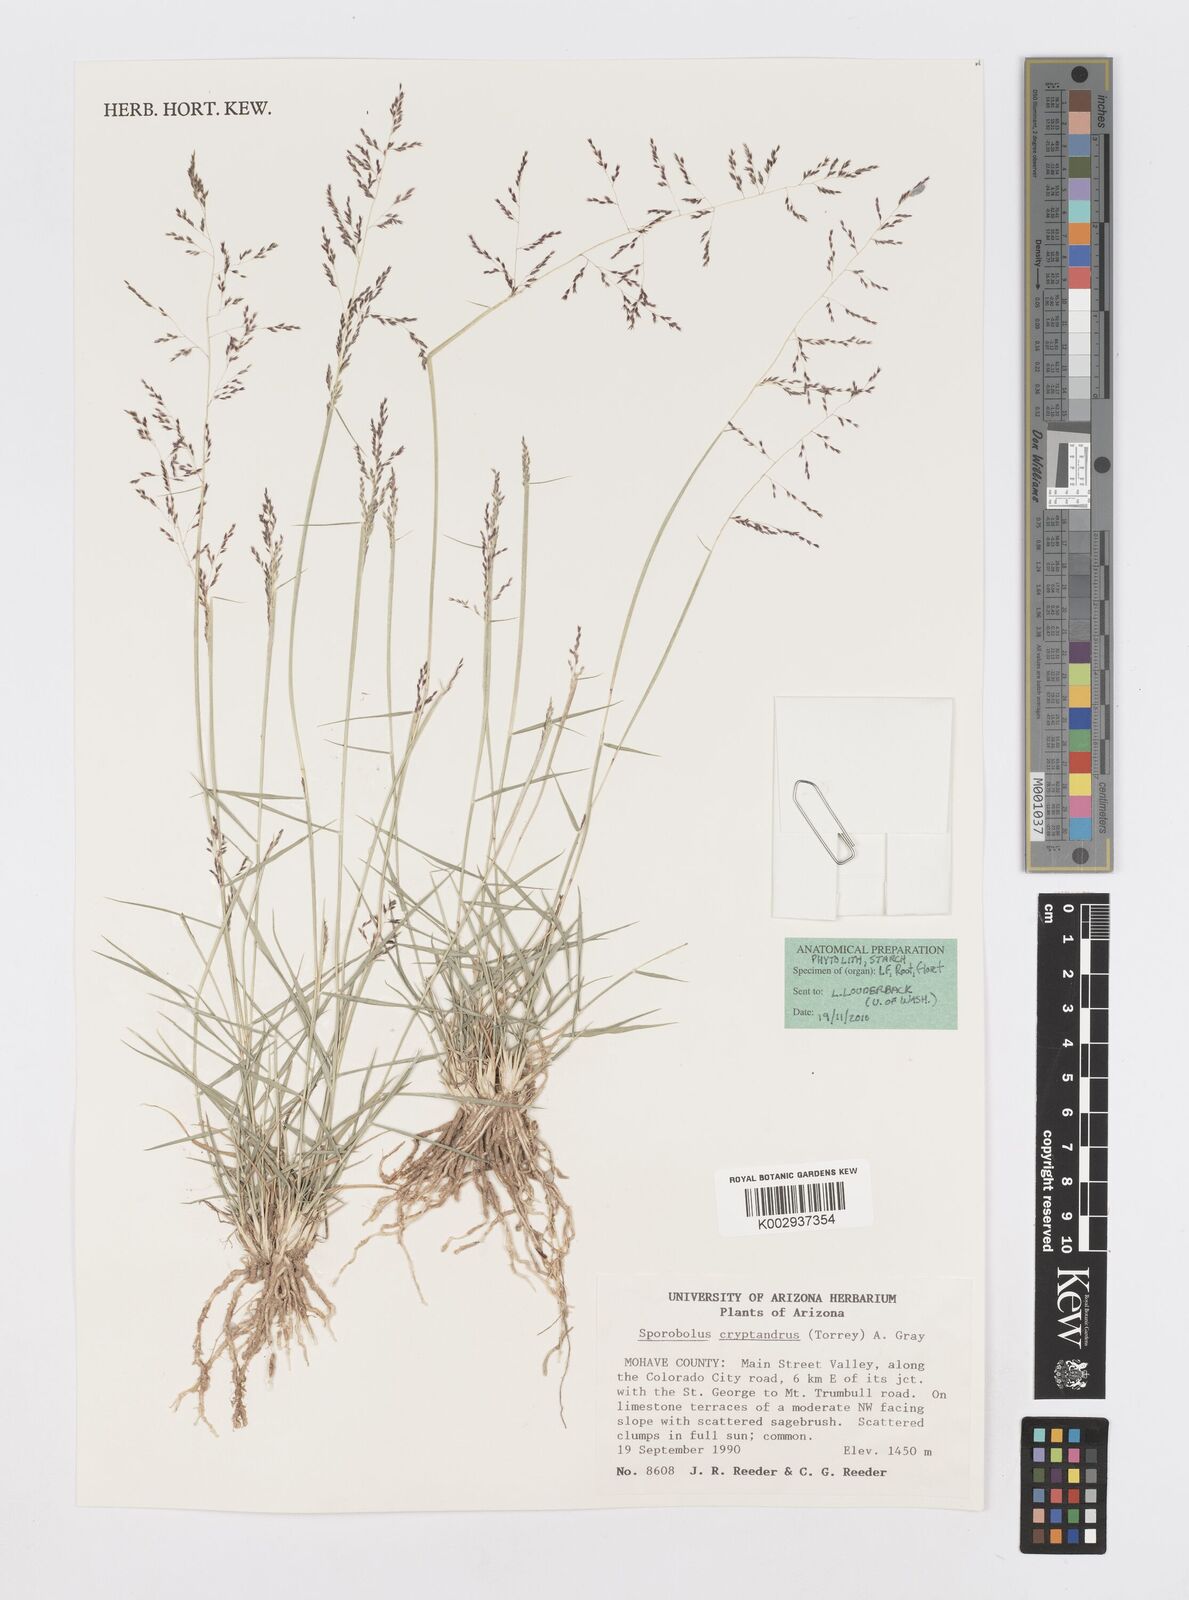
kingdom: Plantae
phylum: Tracheophyta
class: Liliopsida
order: Poales
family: Poaceae
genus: Sporobolus
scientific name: Sporobolus cryptandrus
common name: Sand dropseed
